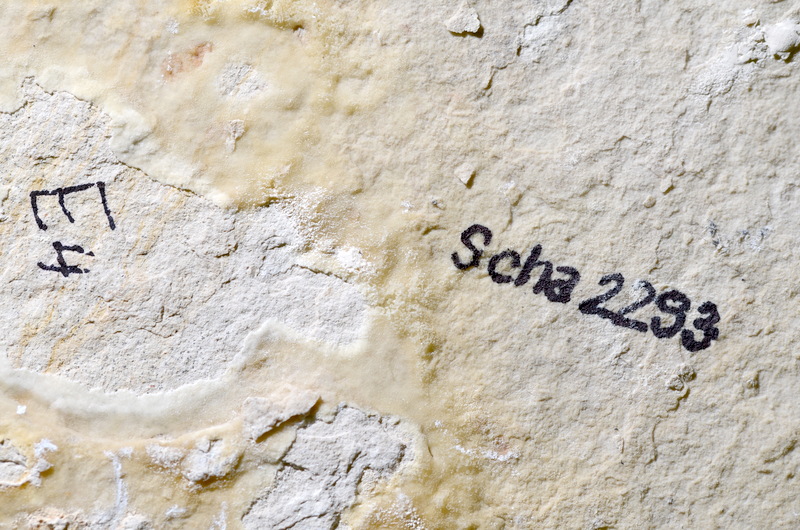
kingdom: Animalia
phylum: Chordata
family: Ascalaboidae
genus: Tharsis
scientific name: Tharsis dubius
